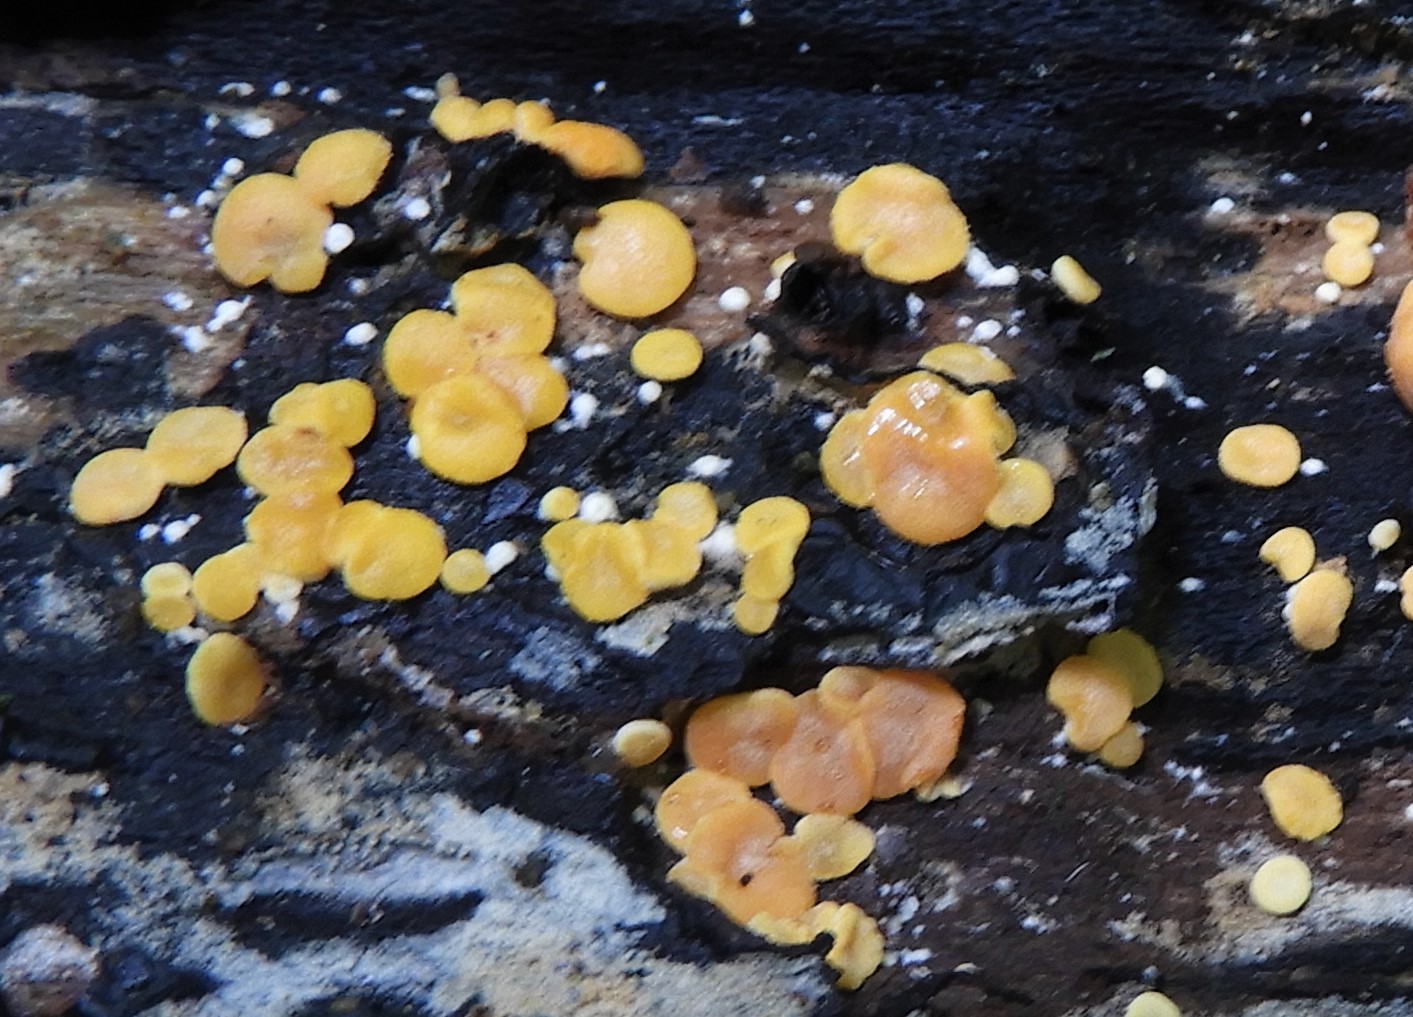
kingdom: Fungi
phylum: Ascomycota
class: Sordariomycetes
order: Hypocreales
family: Hypocreaceae
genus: Trichoderma
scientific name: Trichoderma aureoviride
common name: æggegul kødkerne
